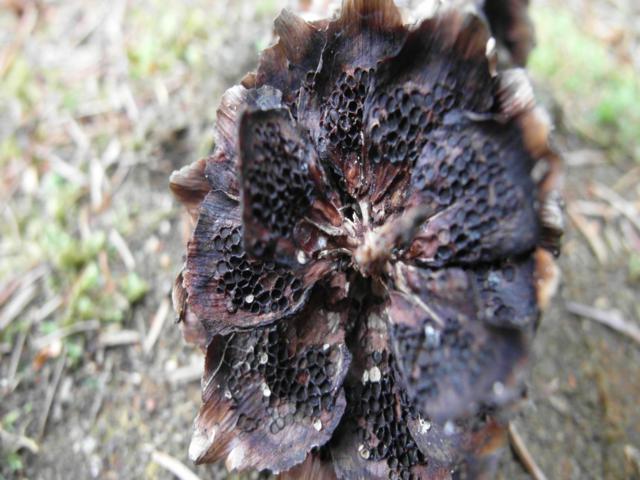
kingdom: Fungi
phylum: Basidiomycota
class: Pucciniomycetes
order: Pucciniales
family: Pucciniastraceae
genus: Thekopsora
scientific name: Thekopsora areolata
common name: grankogle-nålerust
